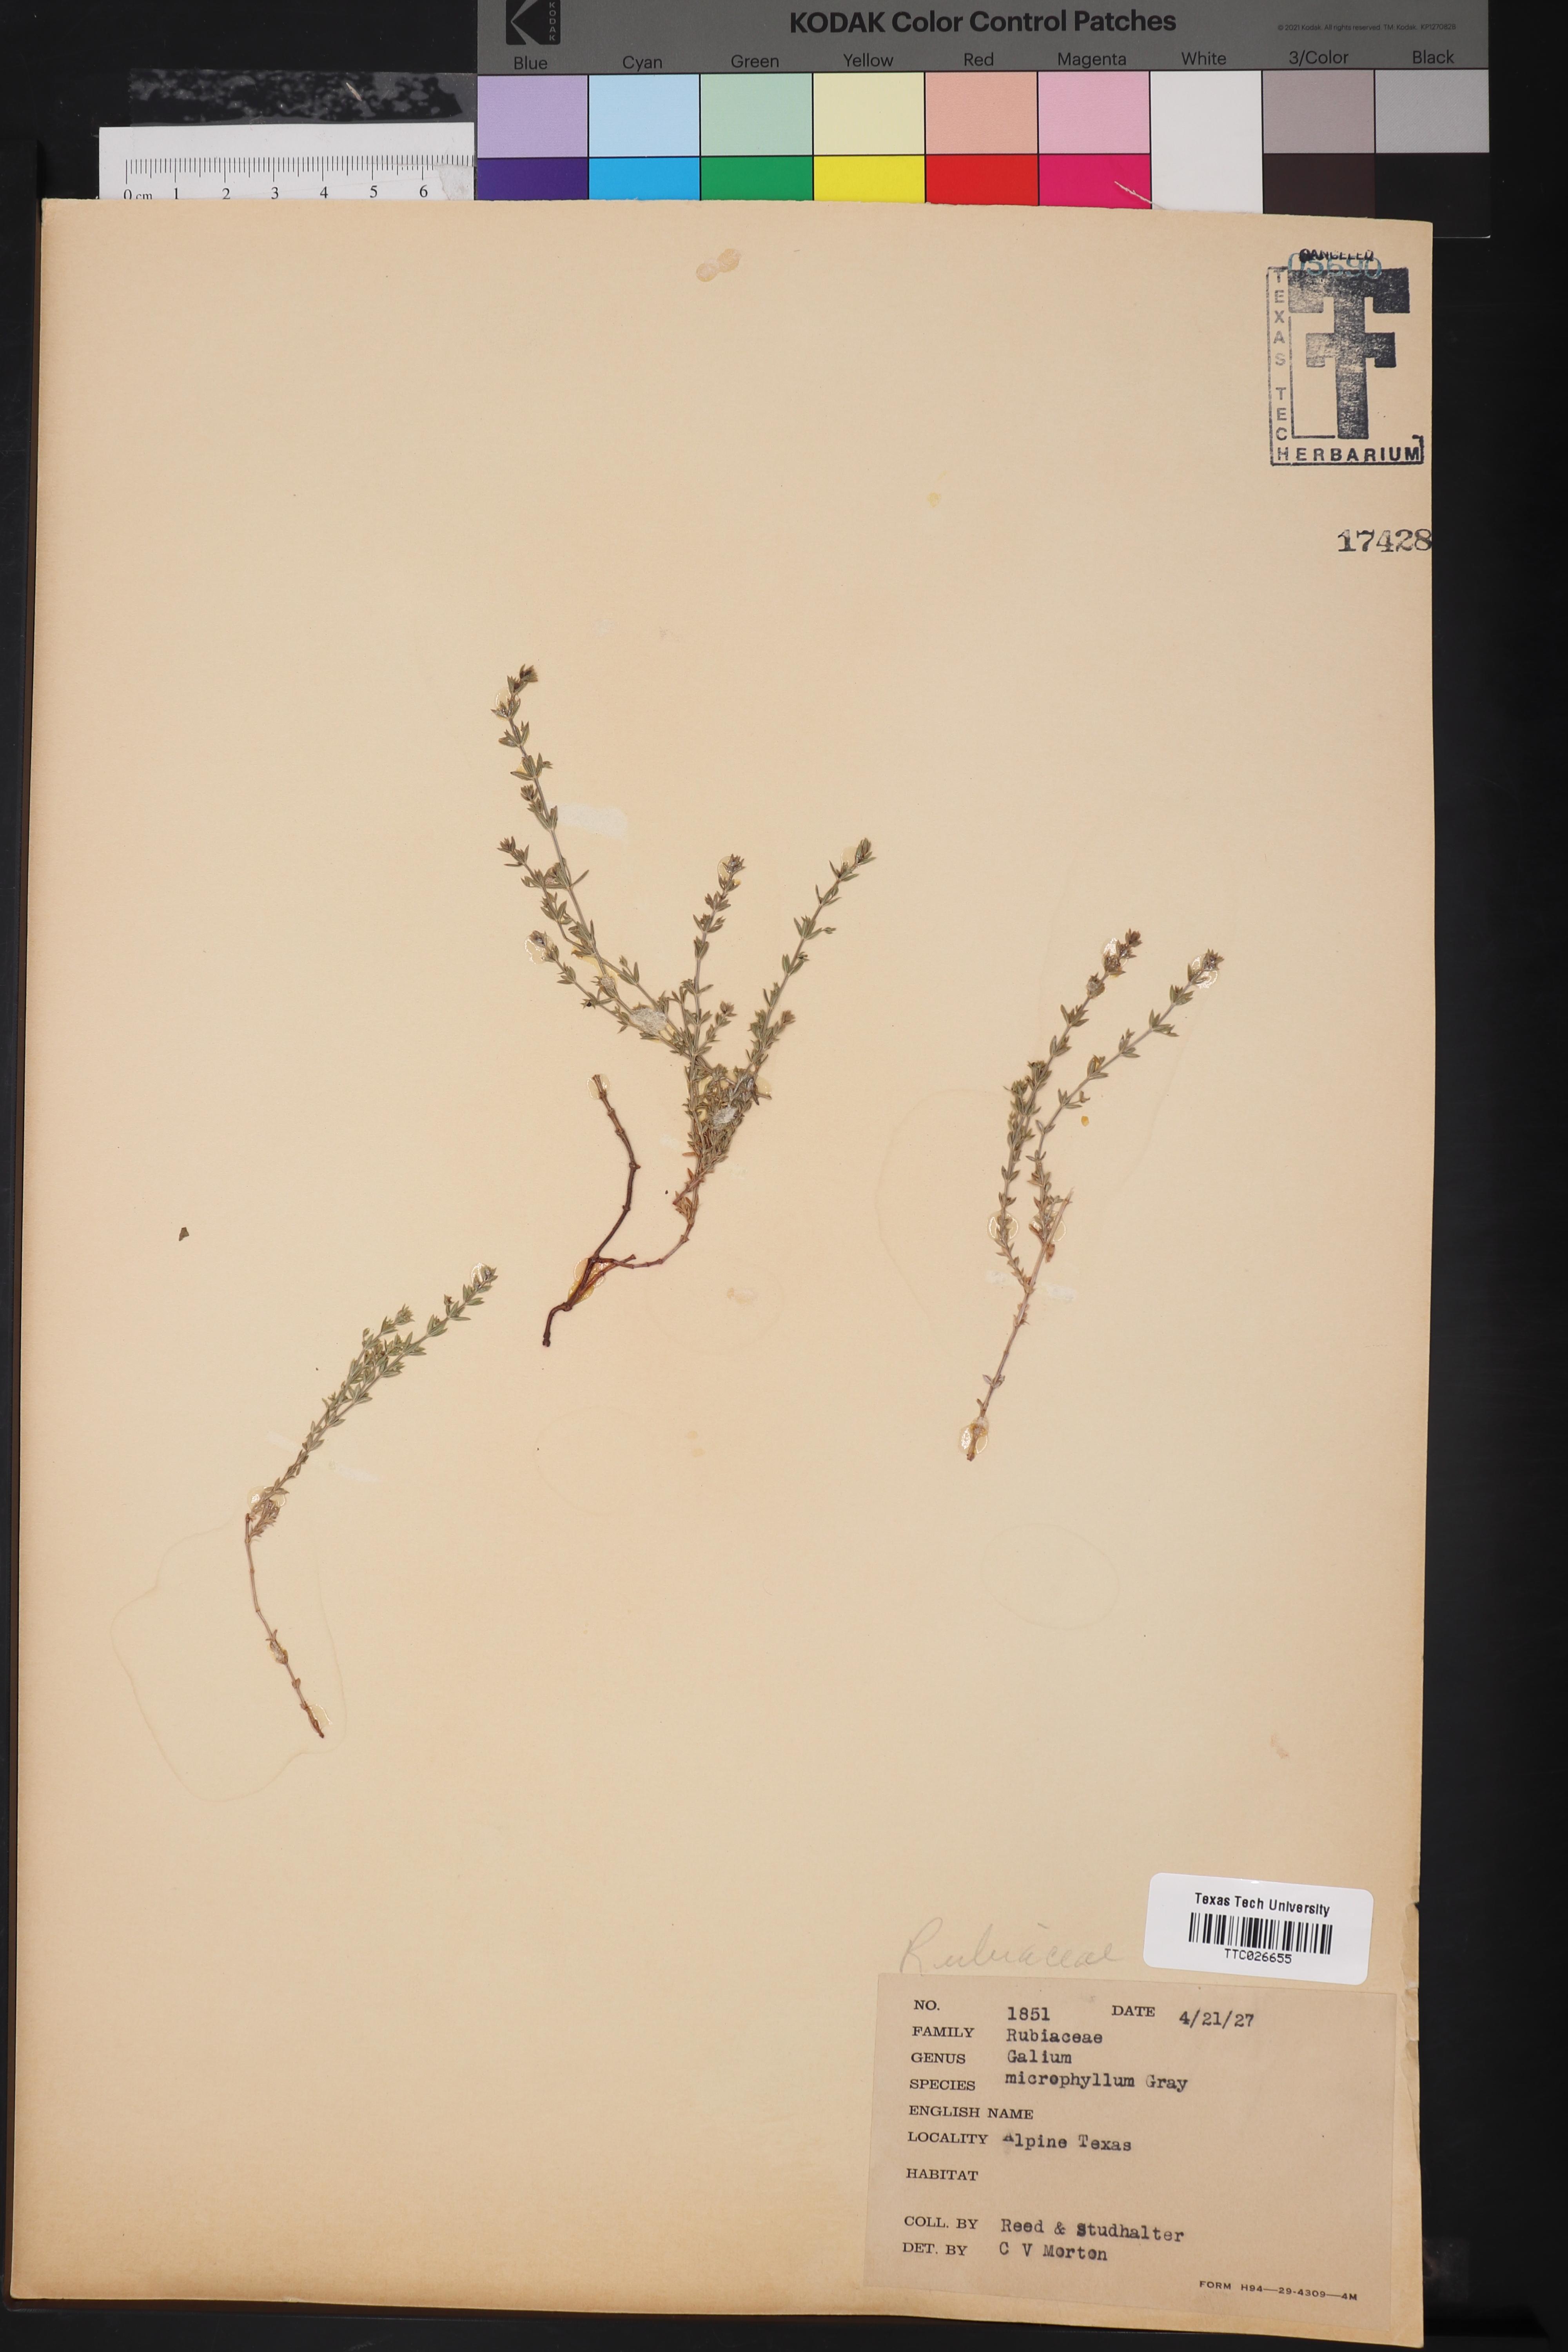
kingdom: Plantae
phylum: Tracheophyta
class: Magnoliopsida
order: Gentianales
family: Rubiaceae
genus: Galium
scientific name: Galium microphyllum
